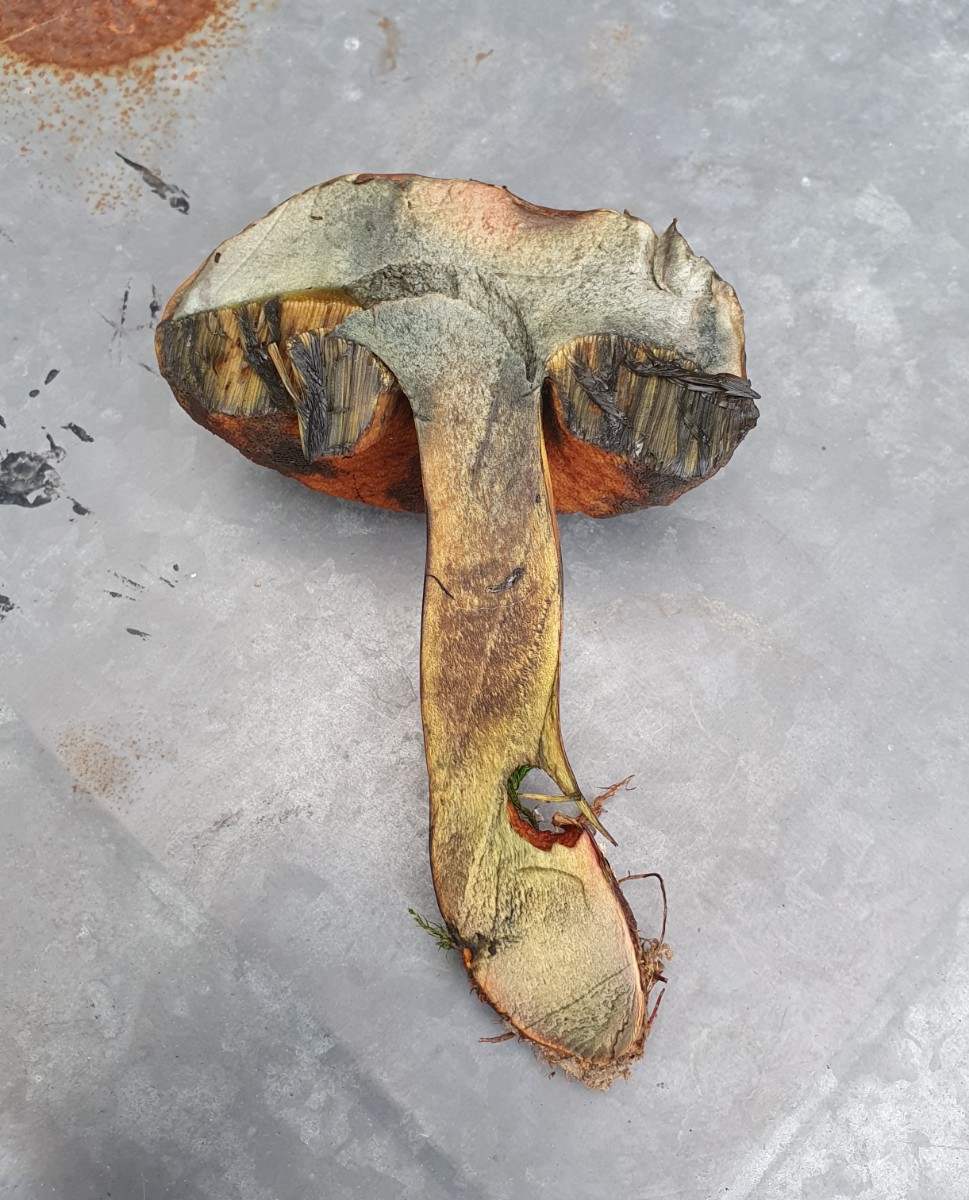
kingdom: Fungi
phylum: Basidiomycota
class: Agaricomycetes
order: Boletales
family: Boletaceae
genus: Neoboletus
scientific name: Neoboletus xanthopus
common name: finprikket indigorørhat
